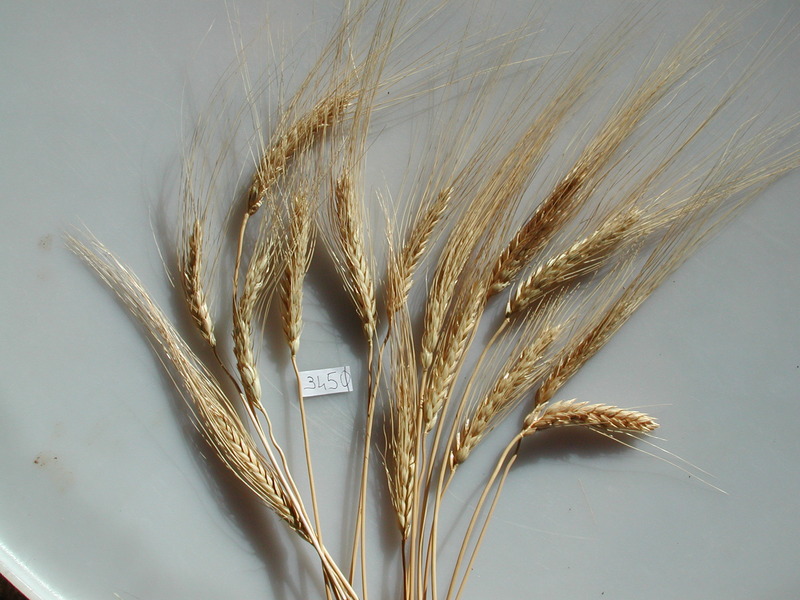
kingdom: Plantae
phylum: Tracheophyta
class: Liliopsida
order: Poales
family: Poaceae
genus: Triticum
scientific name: Triticum turgidum
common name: Wheat
